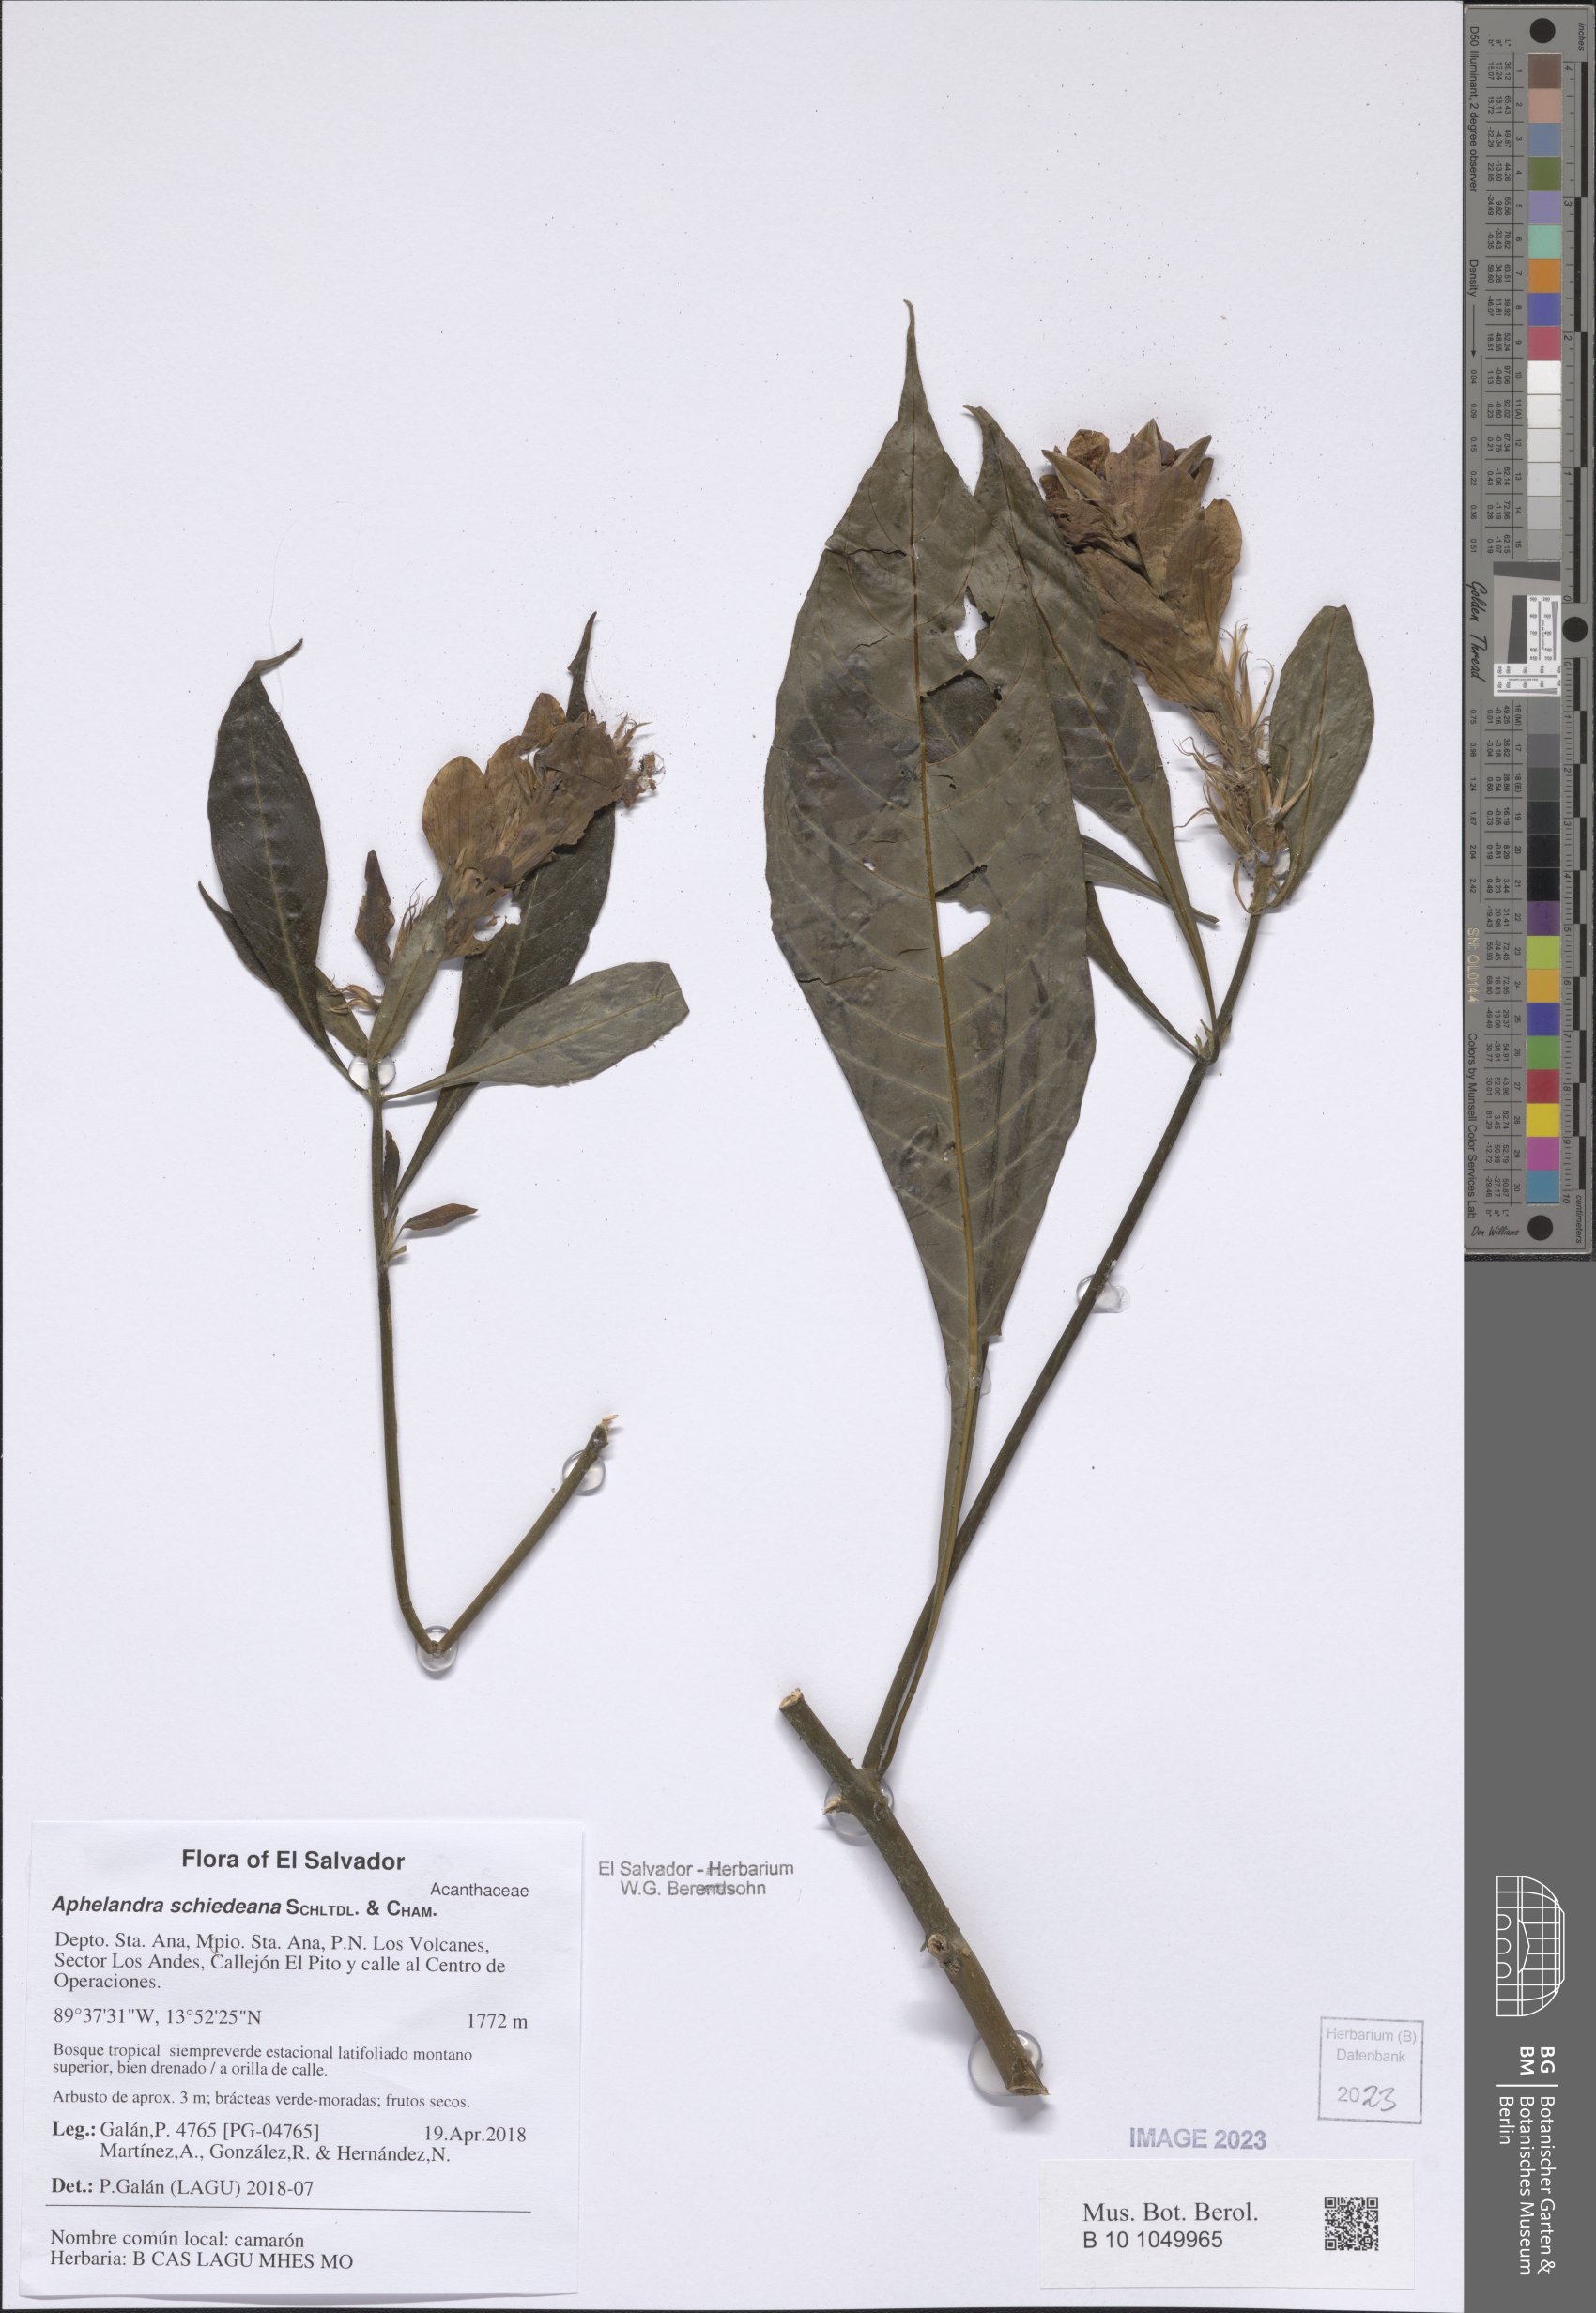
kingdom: Plantae
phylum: Tracheophyta
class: Magnoliopsida
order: Lamiales
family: Acanthaceae
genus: Aphelandra
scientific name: Aphelandra schiedeana
